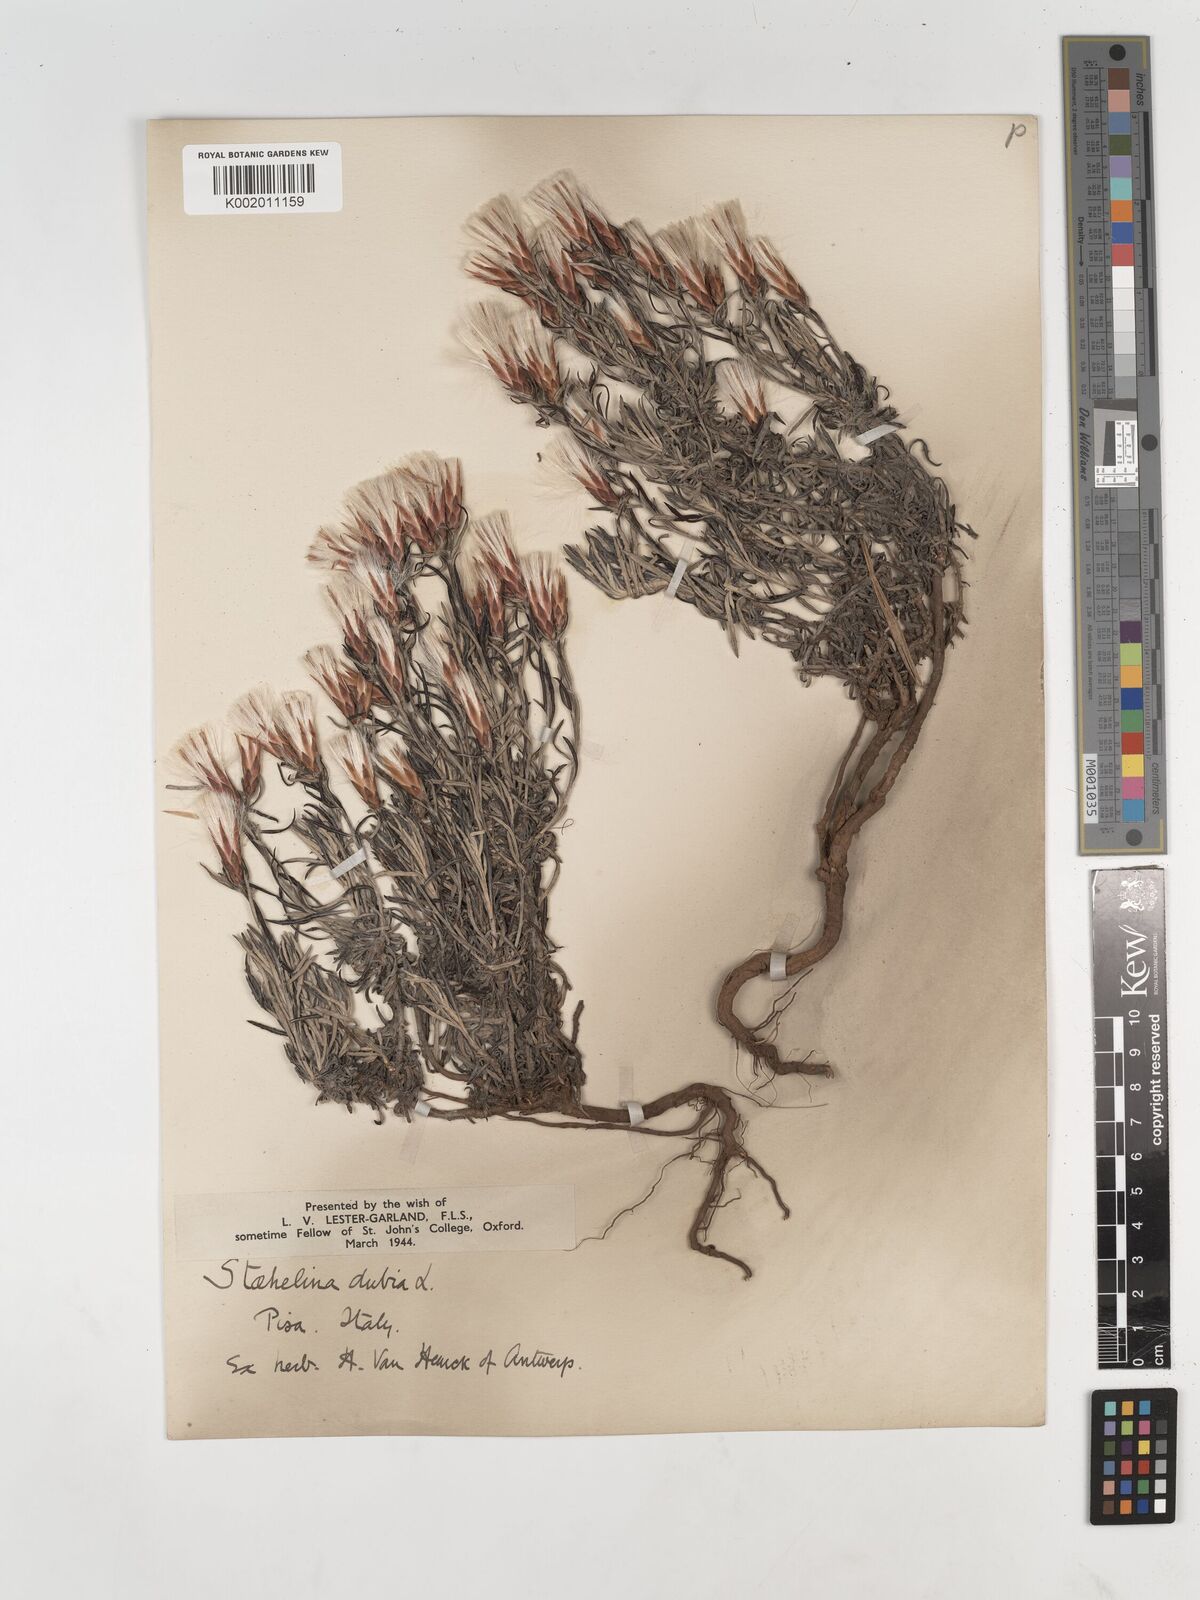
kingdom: Plantae
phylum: Tracheophyta
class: Magnoliopsida
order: Asterales
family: Asteraceae
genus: Staehelina
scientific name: Staehelina dubia
